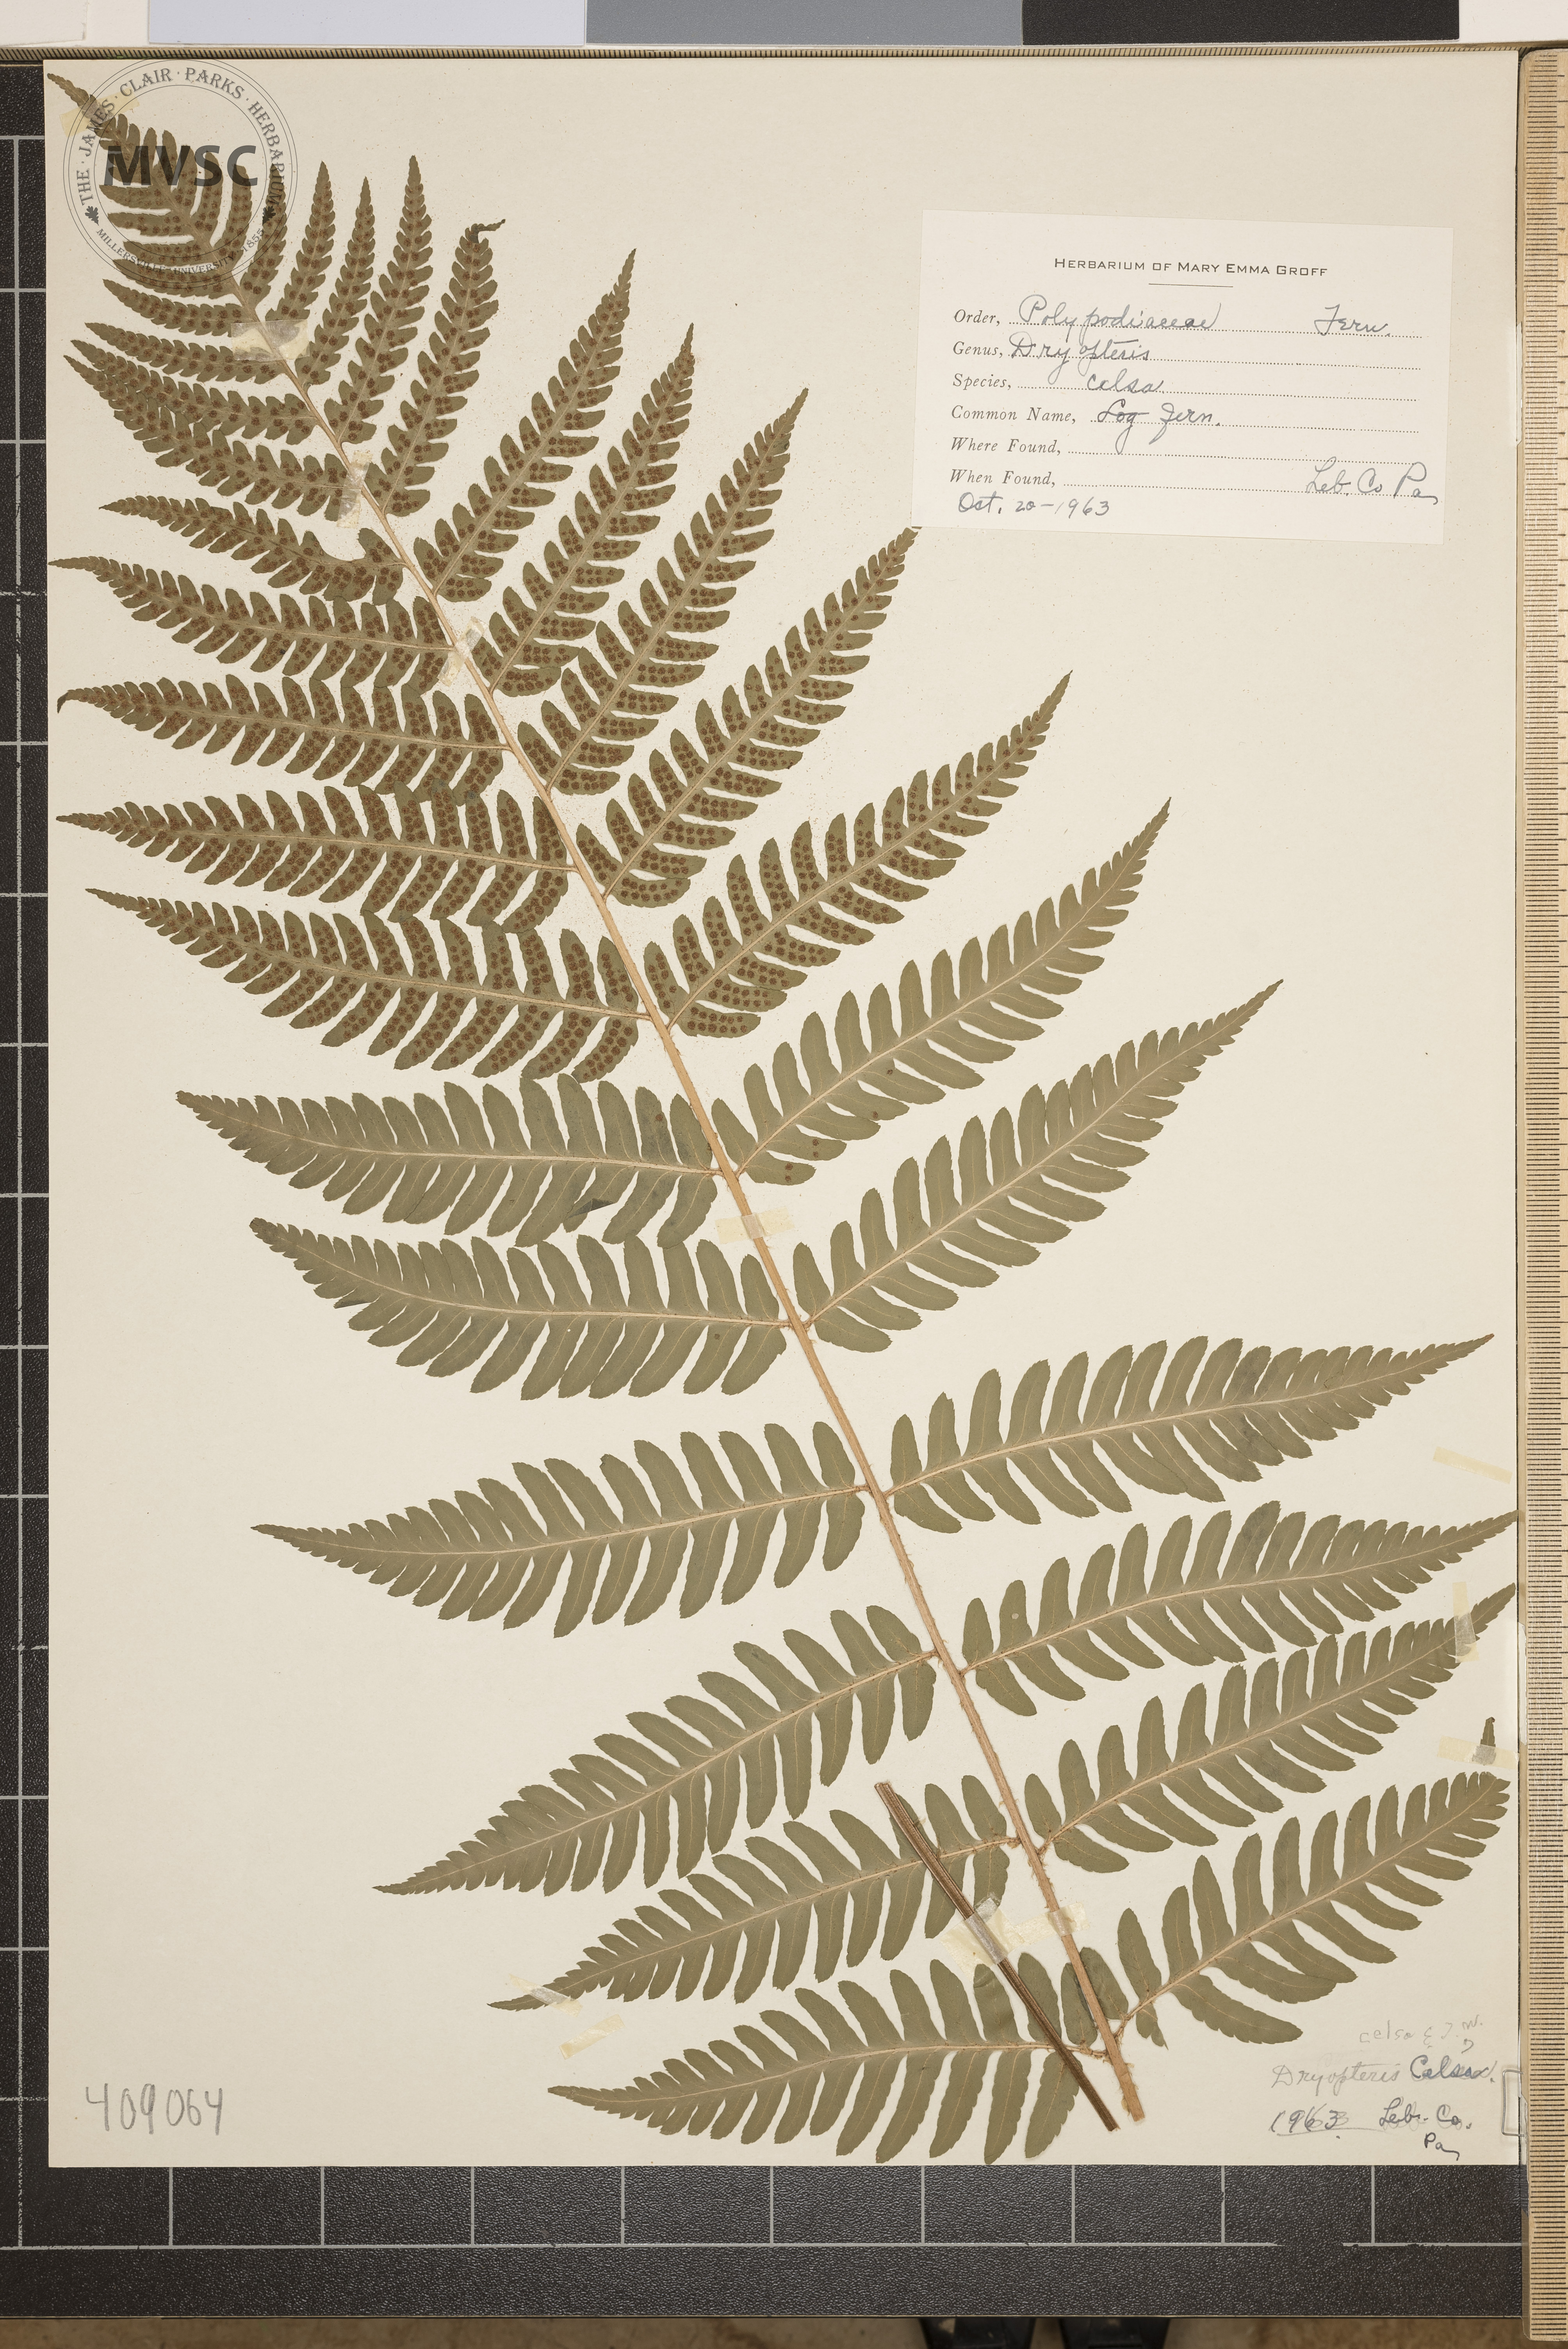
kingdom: Plantae
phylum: Tracheophyta
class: Polypodiopsida
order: Polypodiales
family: Dryopteridaceae
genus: Dryopteris
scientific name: Dryopteris celsa
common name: Log Fern
